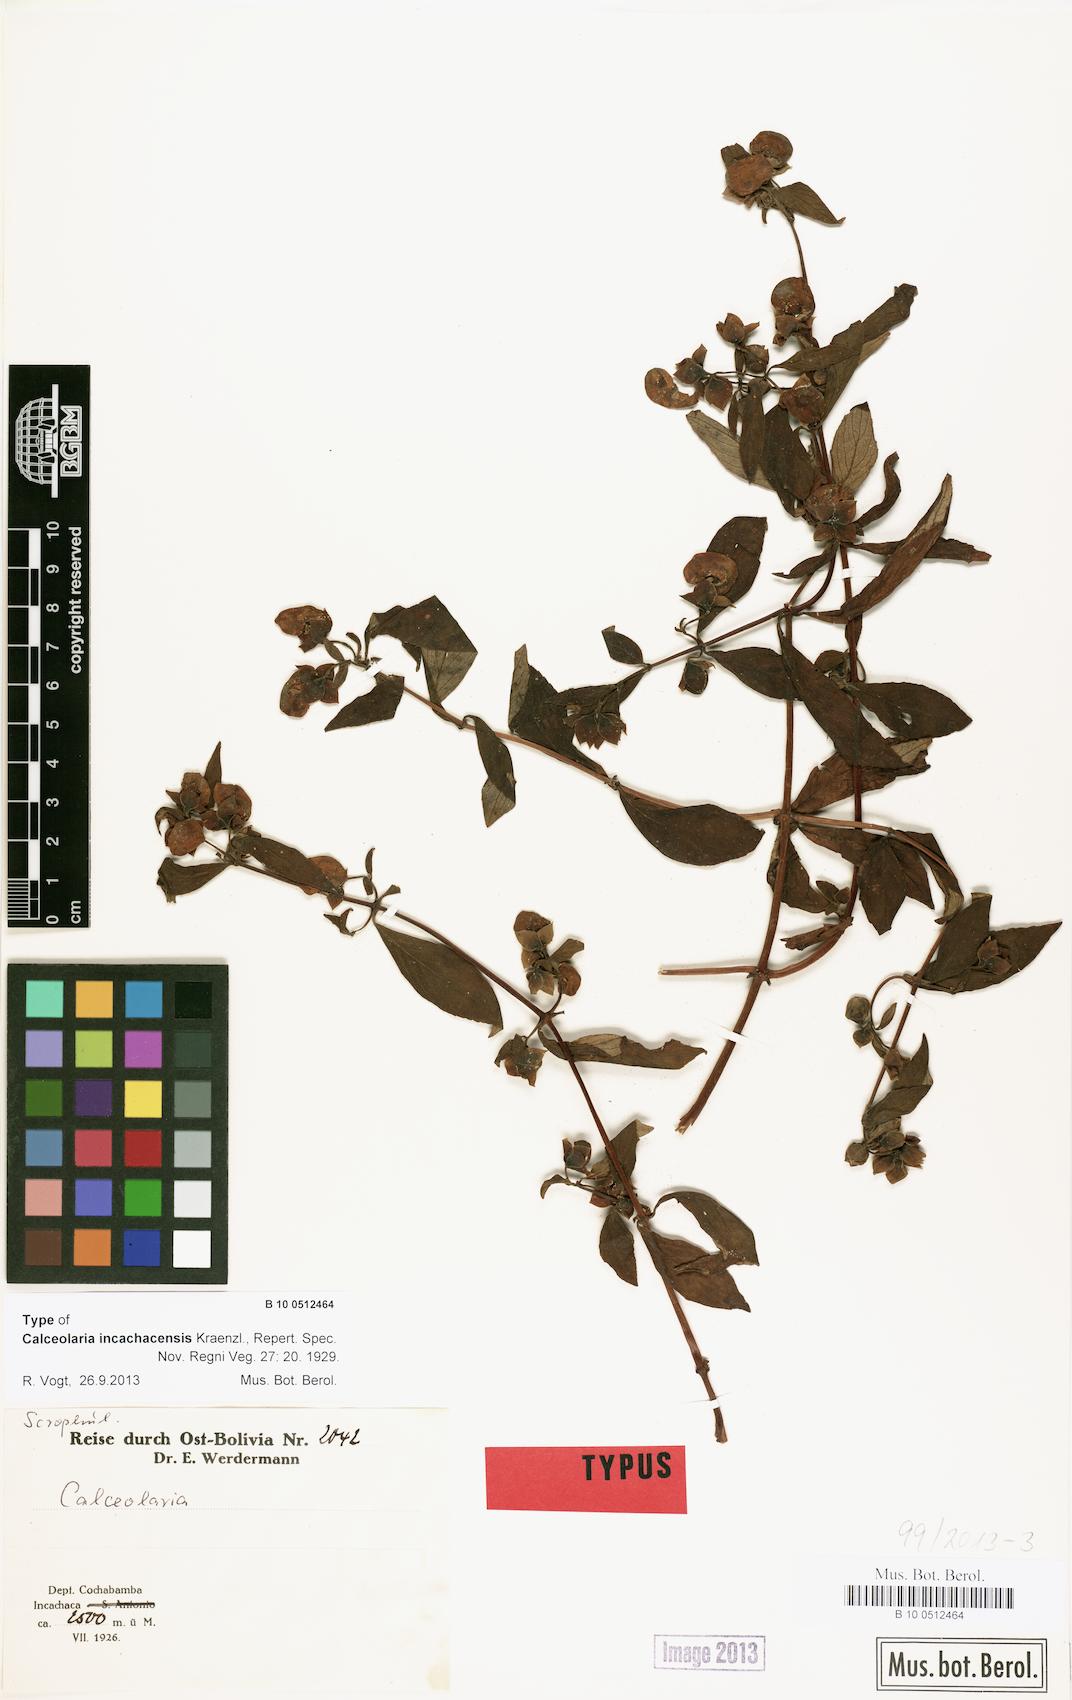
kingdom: Plantae
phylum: Tracheophyta
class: Magnoliopsida
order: Lamiales
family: Calceolariaceae
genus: Calceolaria
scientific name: Calceolaria incachacensis
